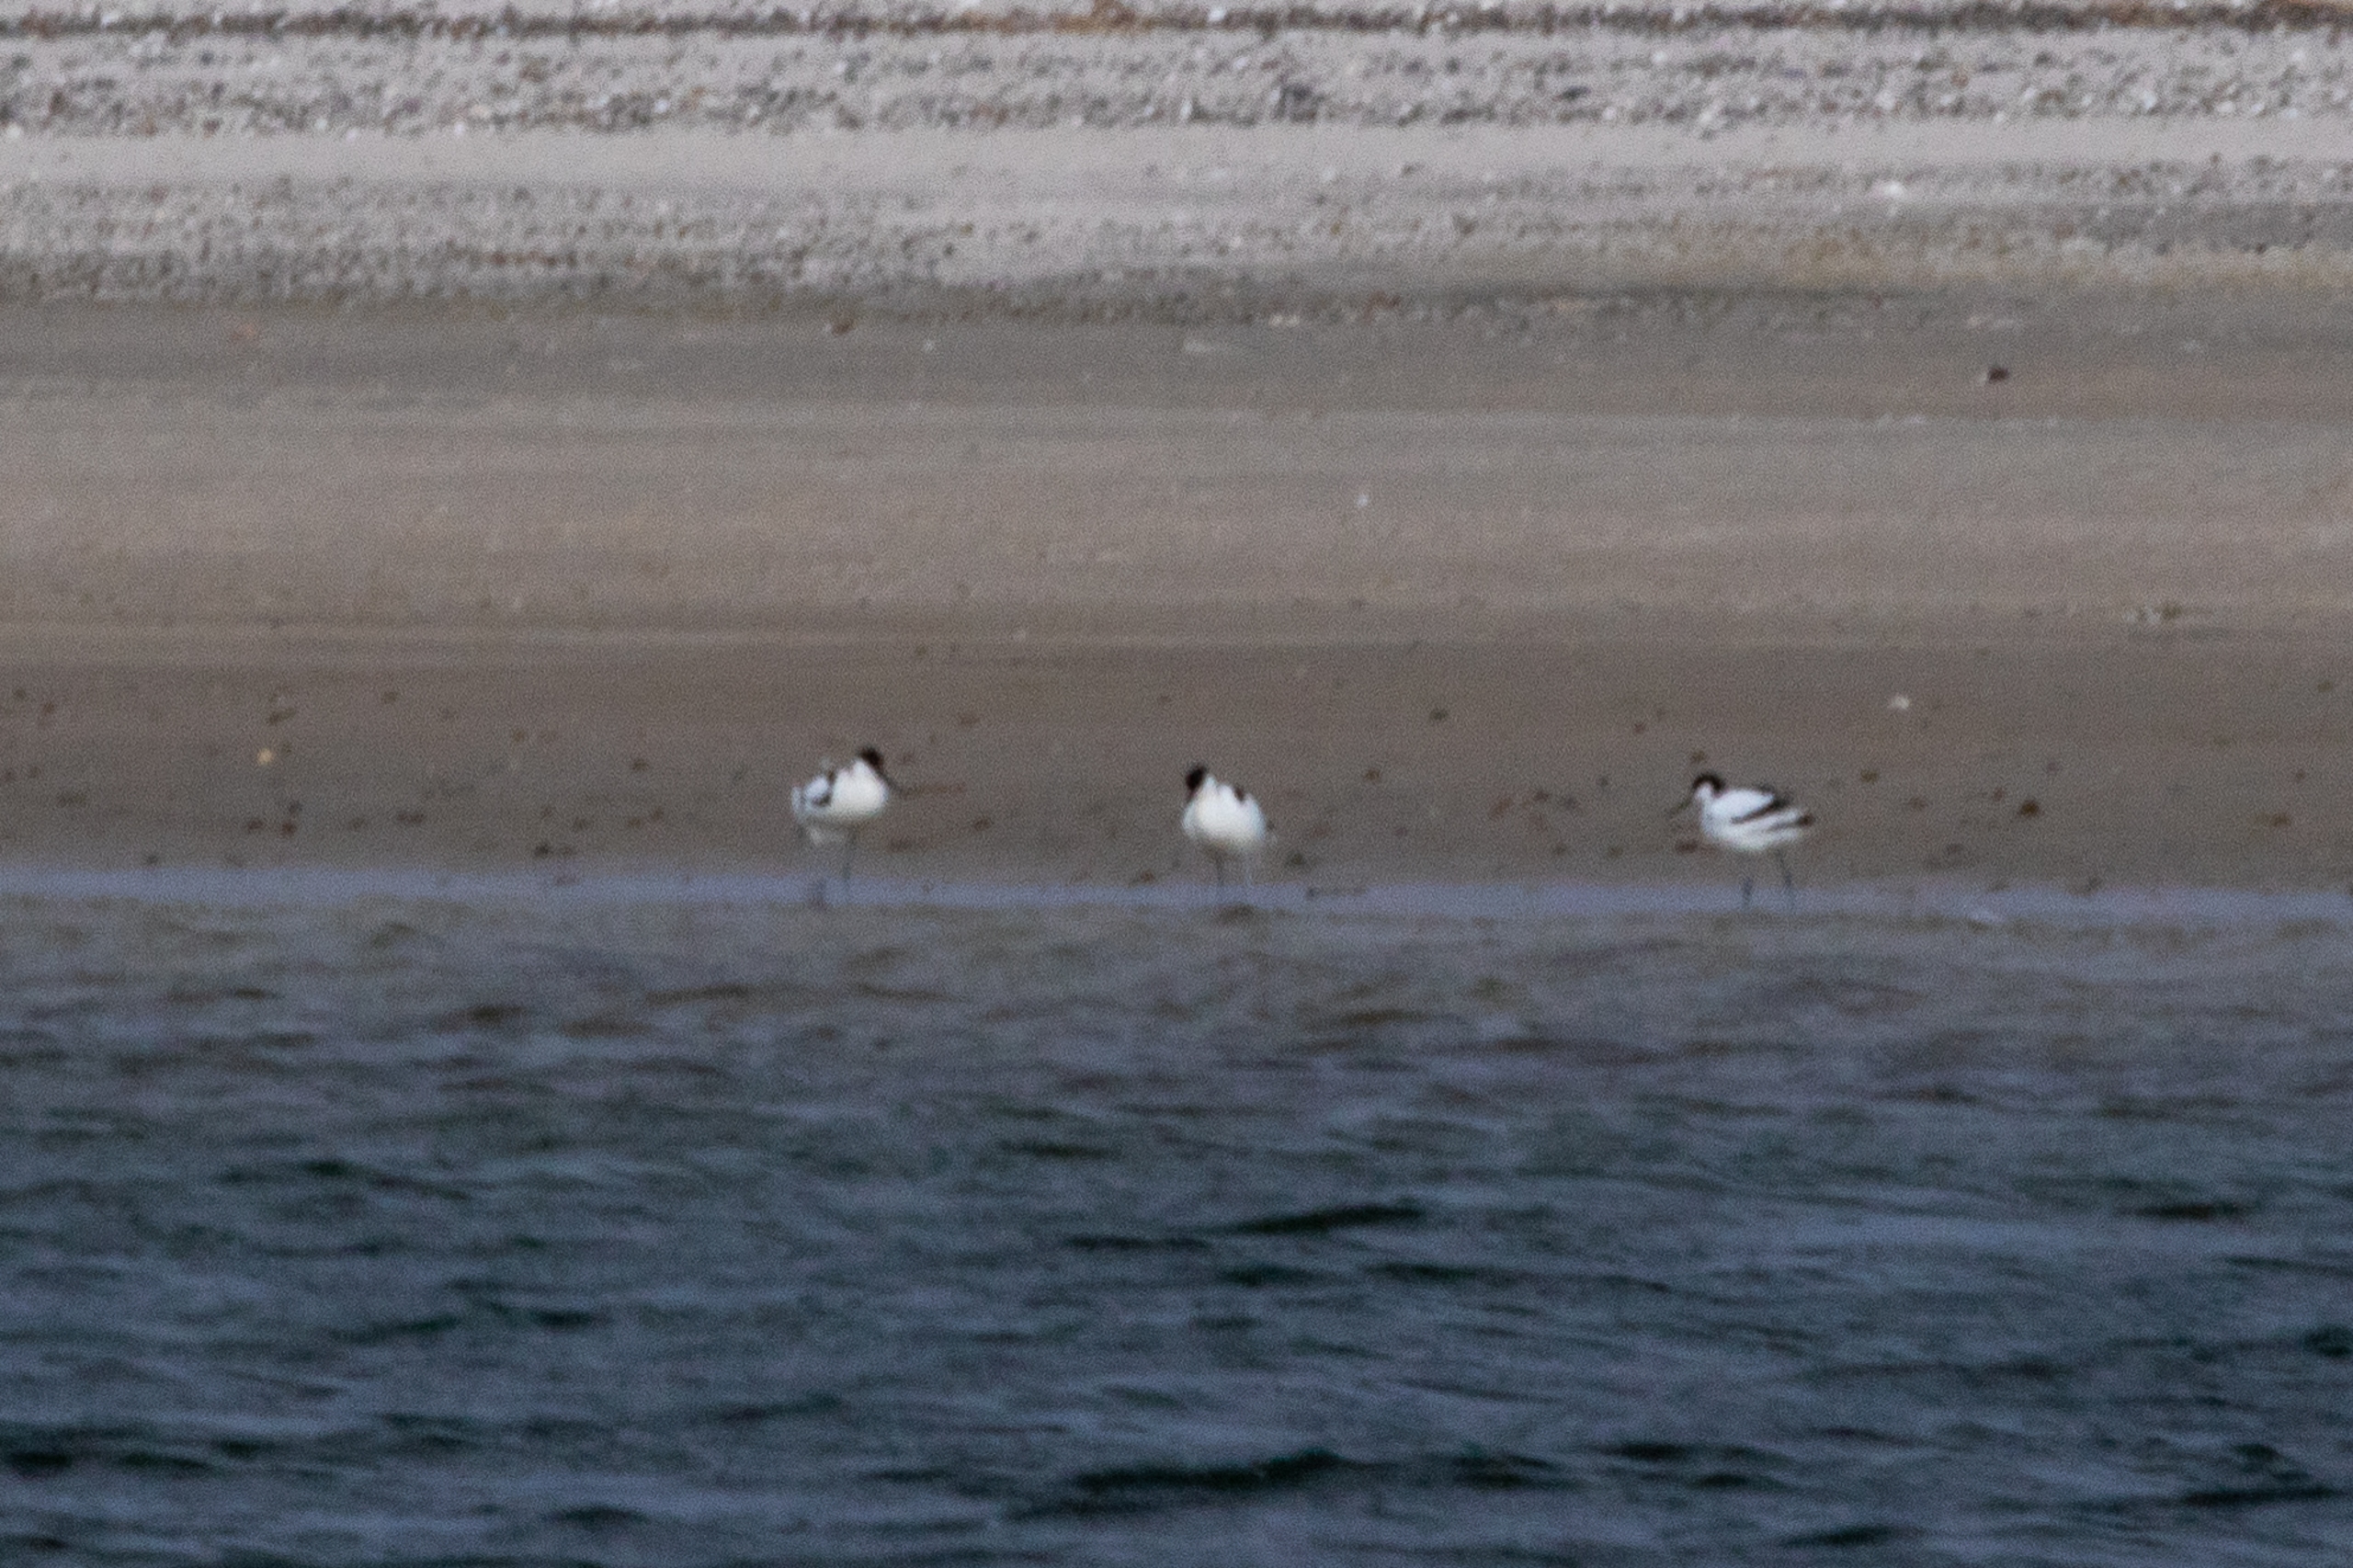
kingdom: Animalia
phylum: Chordata
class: Aves
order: Charadriiformes
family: Recurvirostridae
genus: Recurvirostra
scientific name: Recurvirostra avosetta
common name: Klyde
